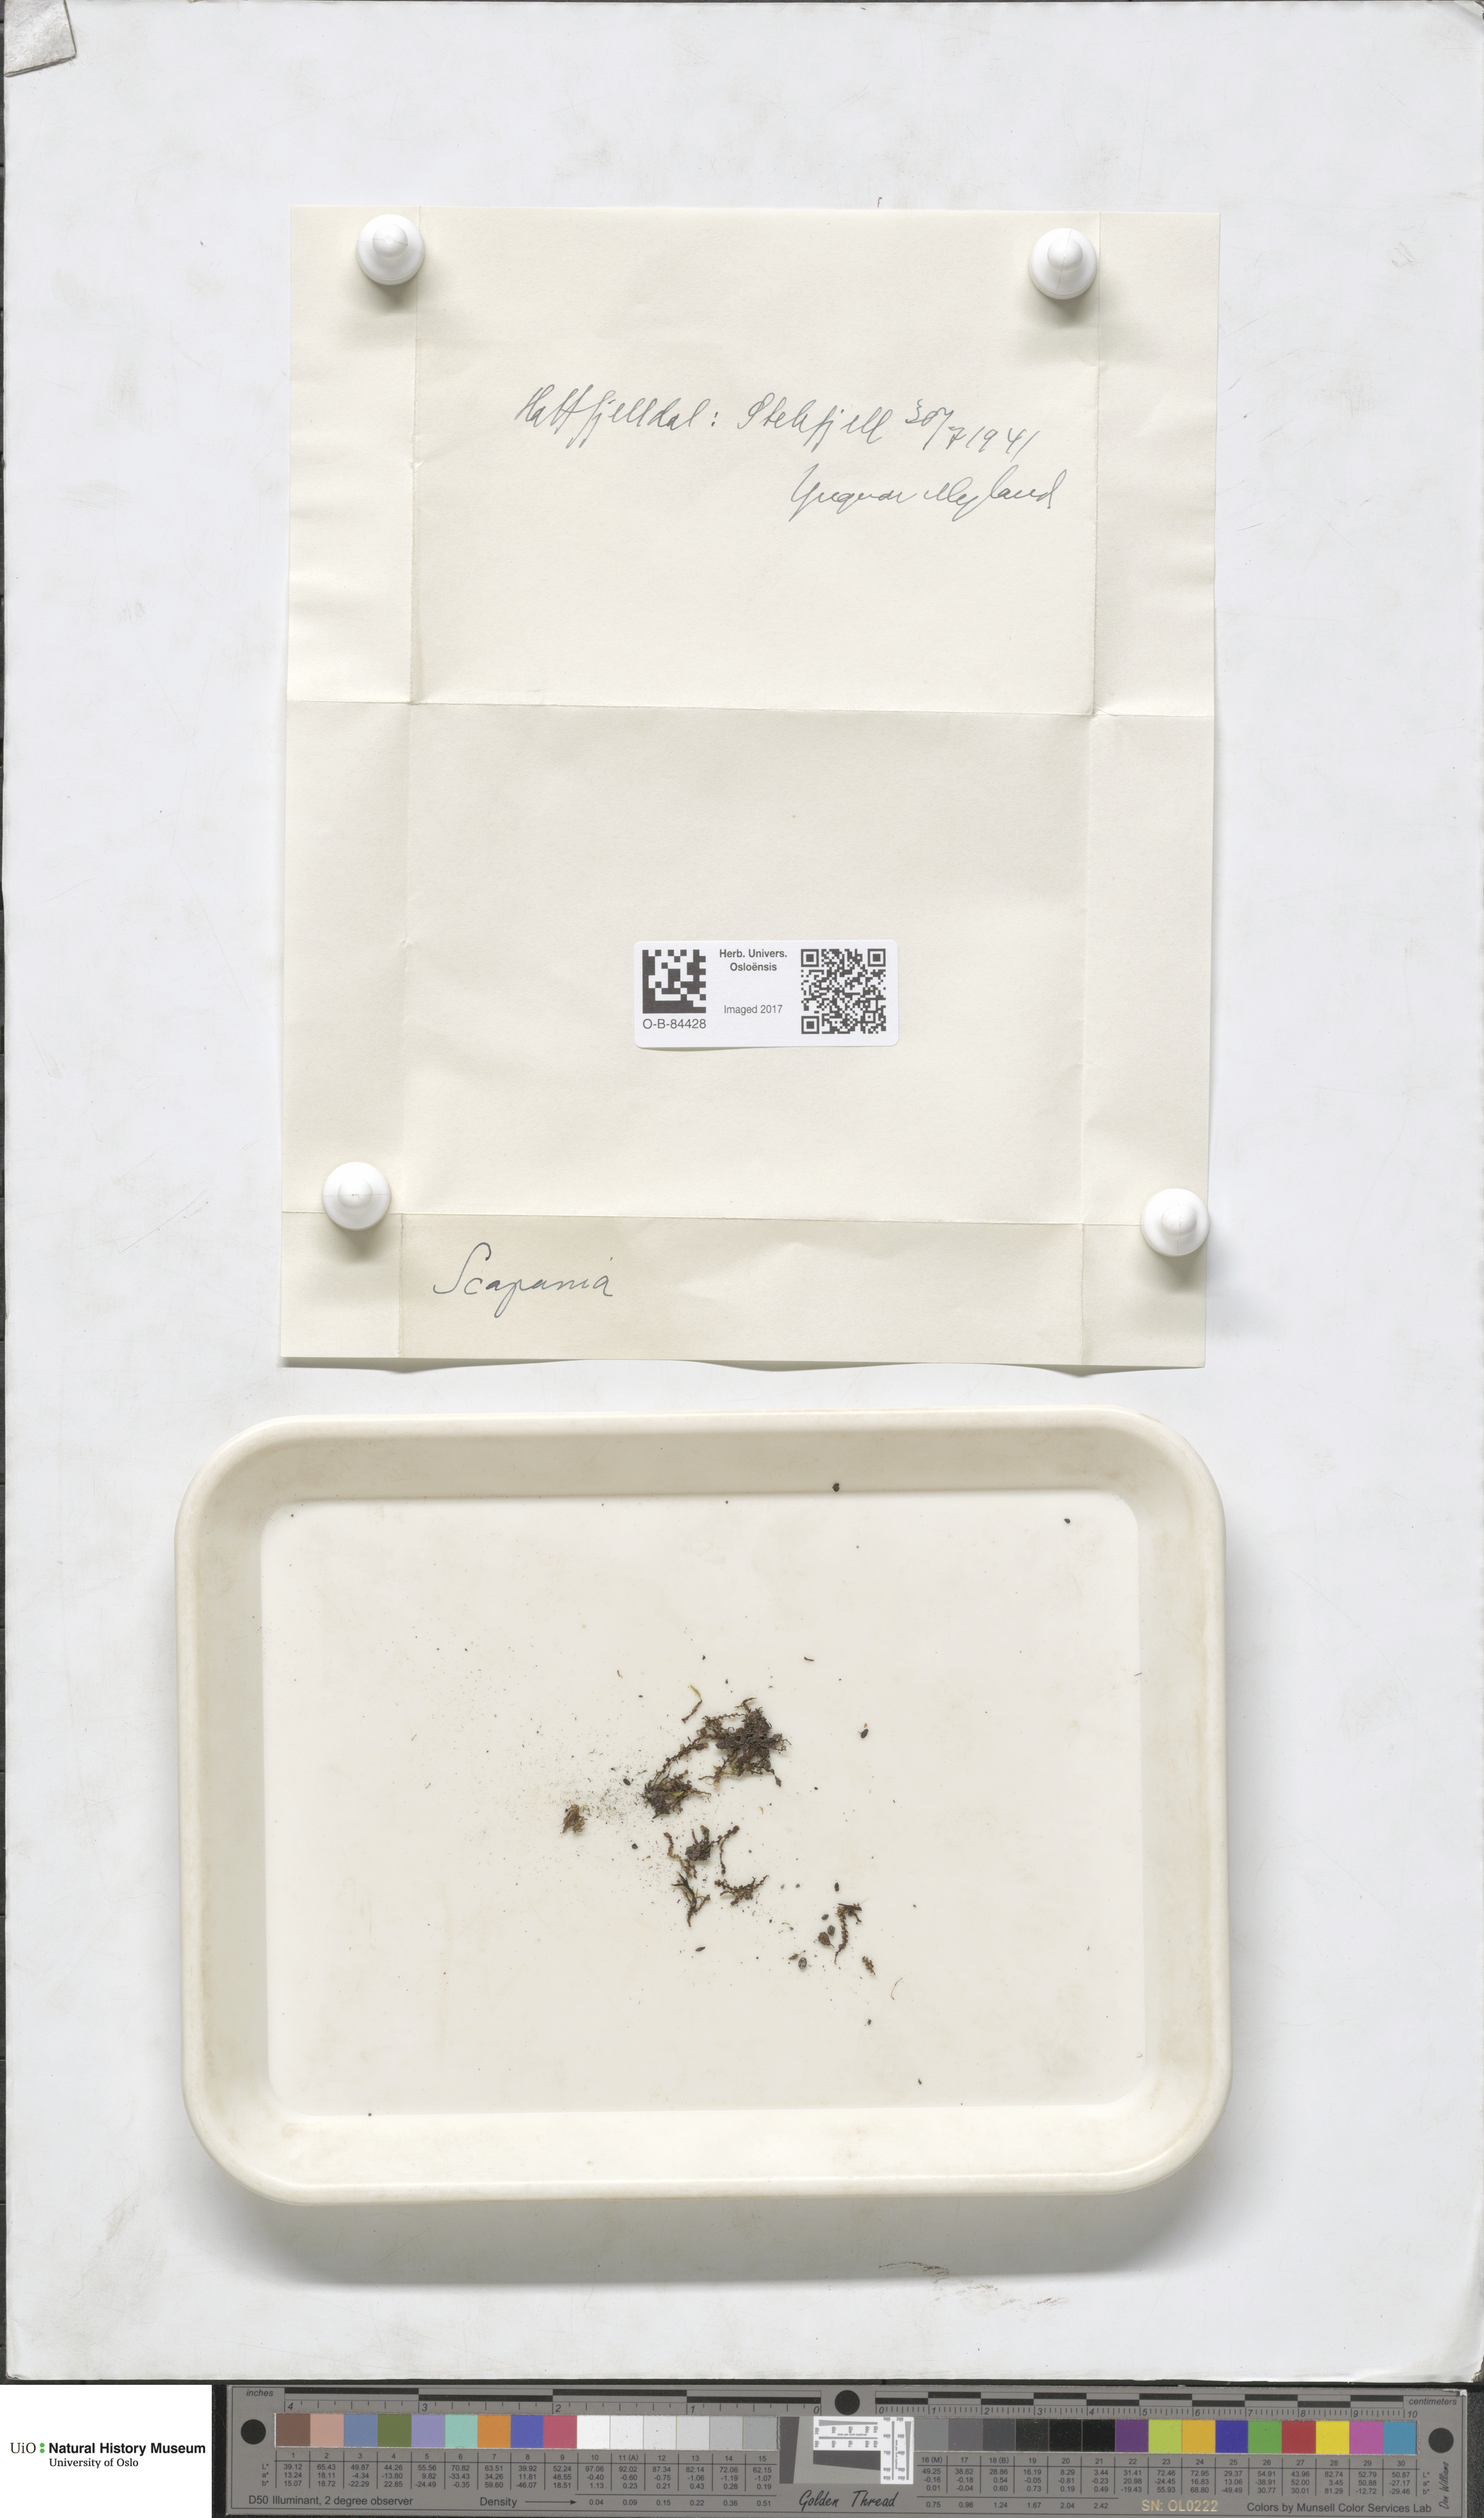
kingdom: Plantae
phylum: Marchantiophyta
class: Jungermanniopsida
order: Jungermanniales
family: Scapaniaceae
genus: Scapania
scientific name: Scapania
